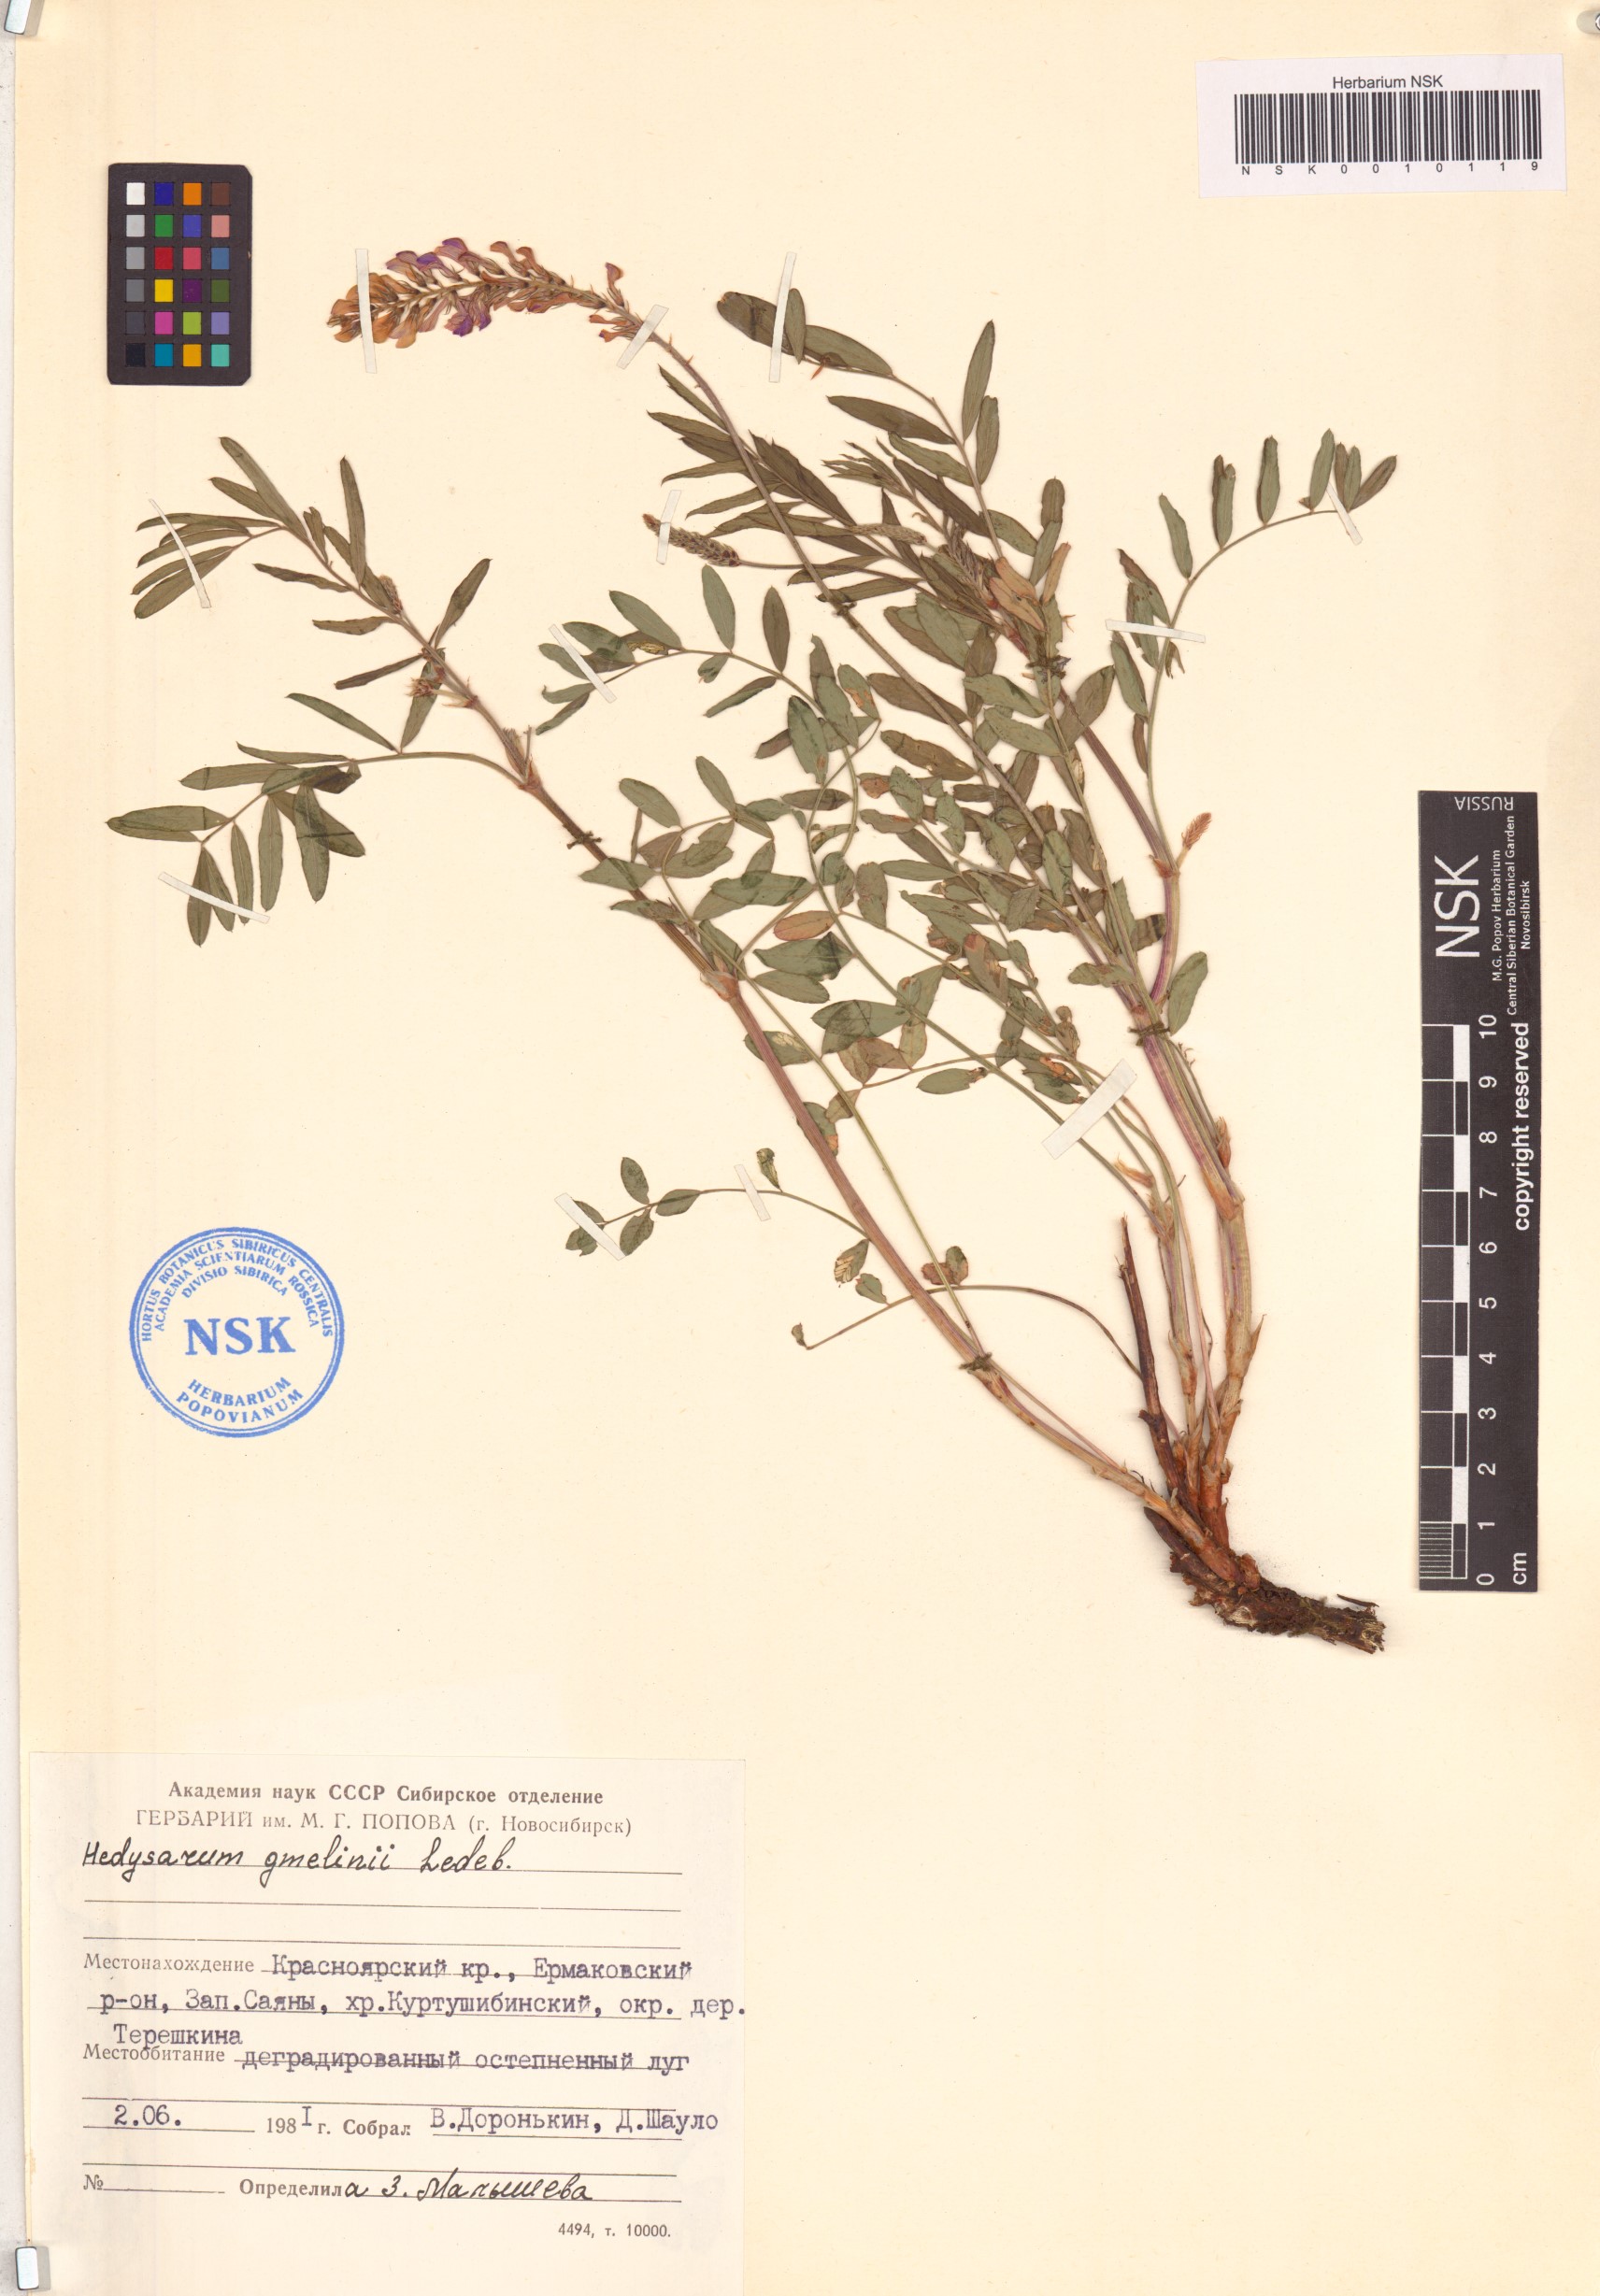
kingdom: Plantae
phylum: Tracheophyta
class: Magnoliopsida
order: Fabales
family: Fabaceae
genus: Hedysarum
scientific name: Hedysarum gmelinii
